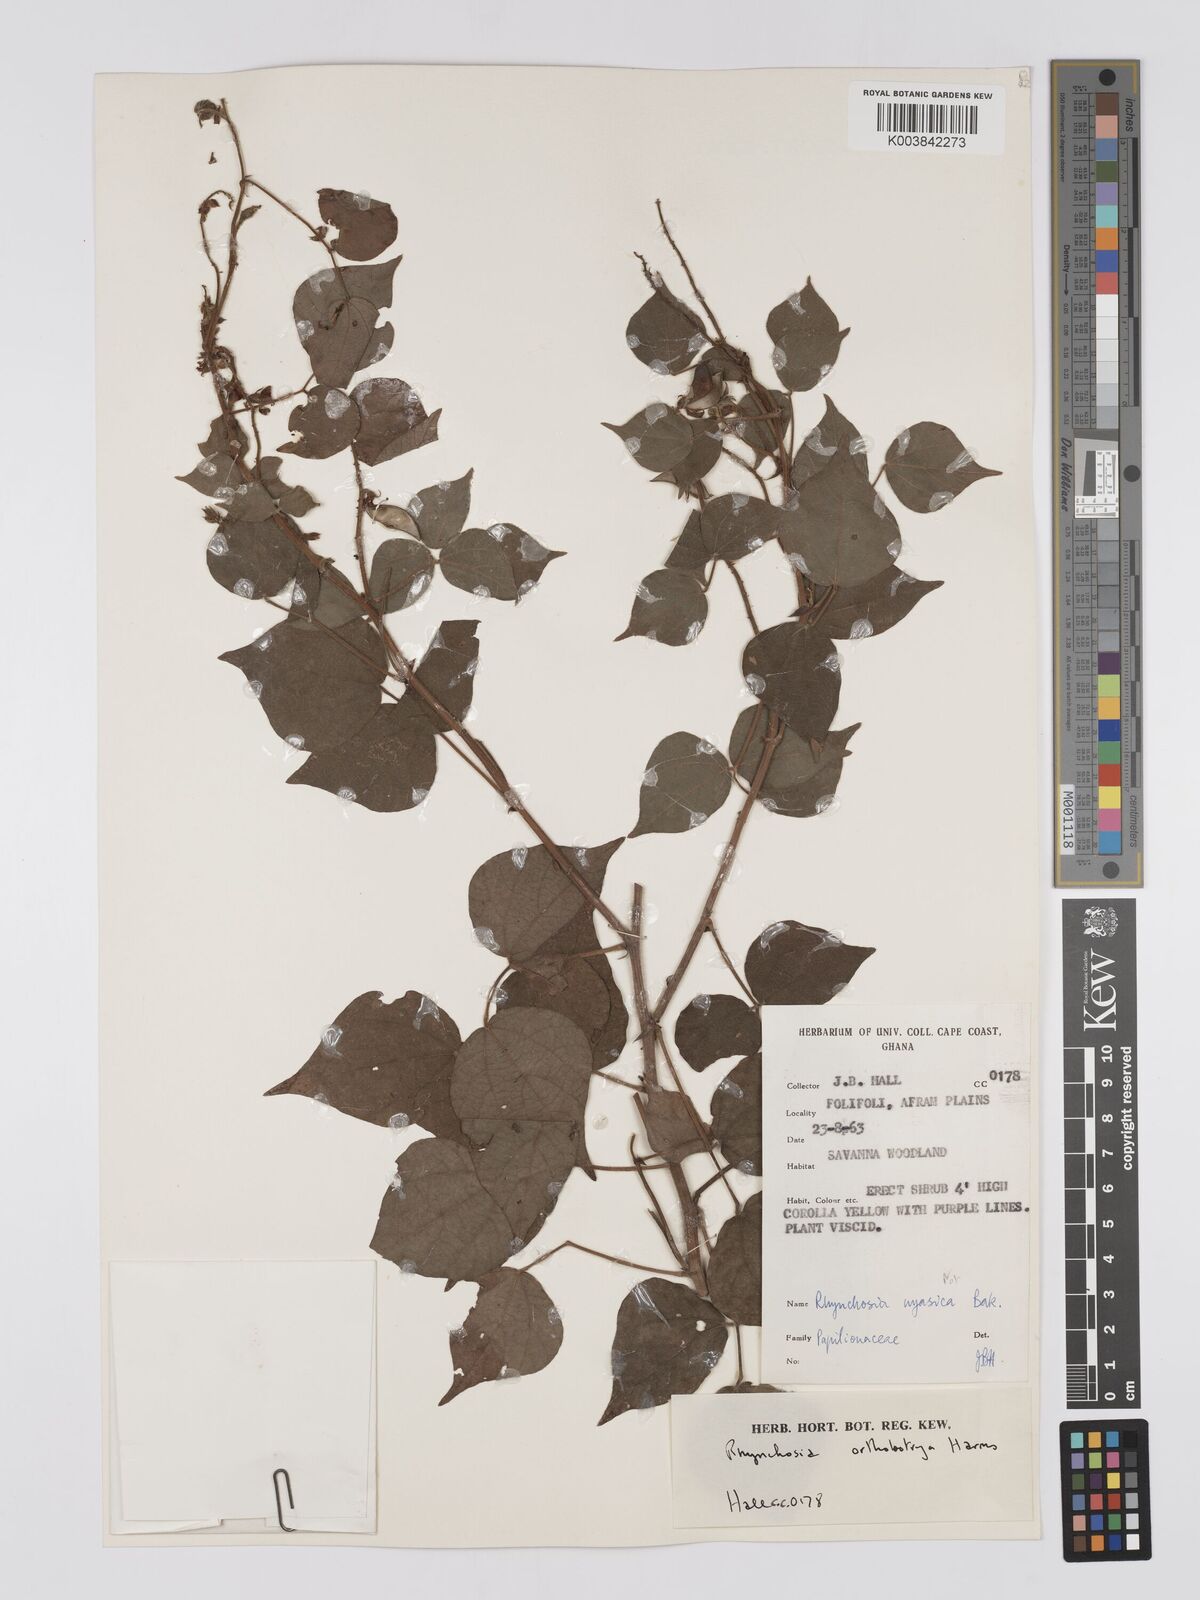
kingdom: Plantae
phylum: Tracheophyta
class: Magnoliopsida
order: Fabales
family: Fabaceae
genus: Rhynchosia
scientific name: Rhynchosia orthobotrya
